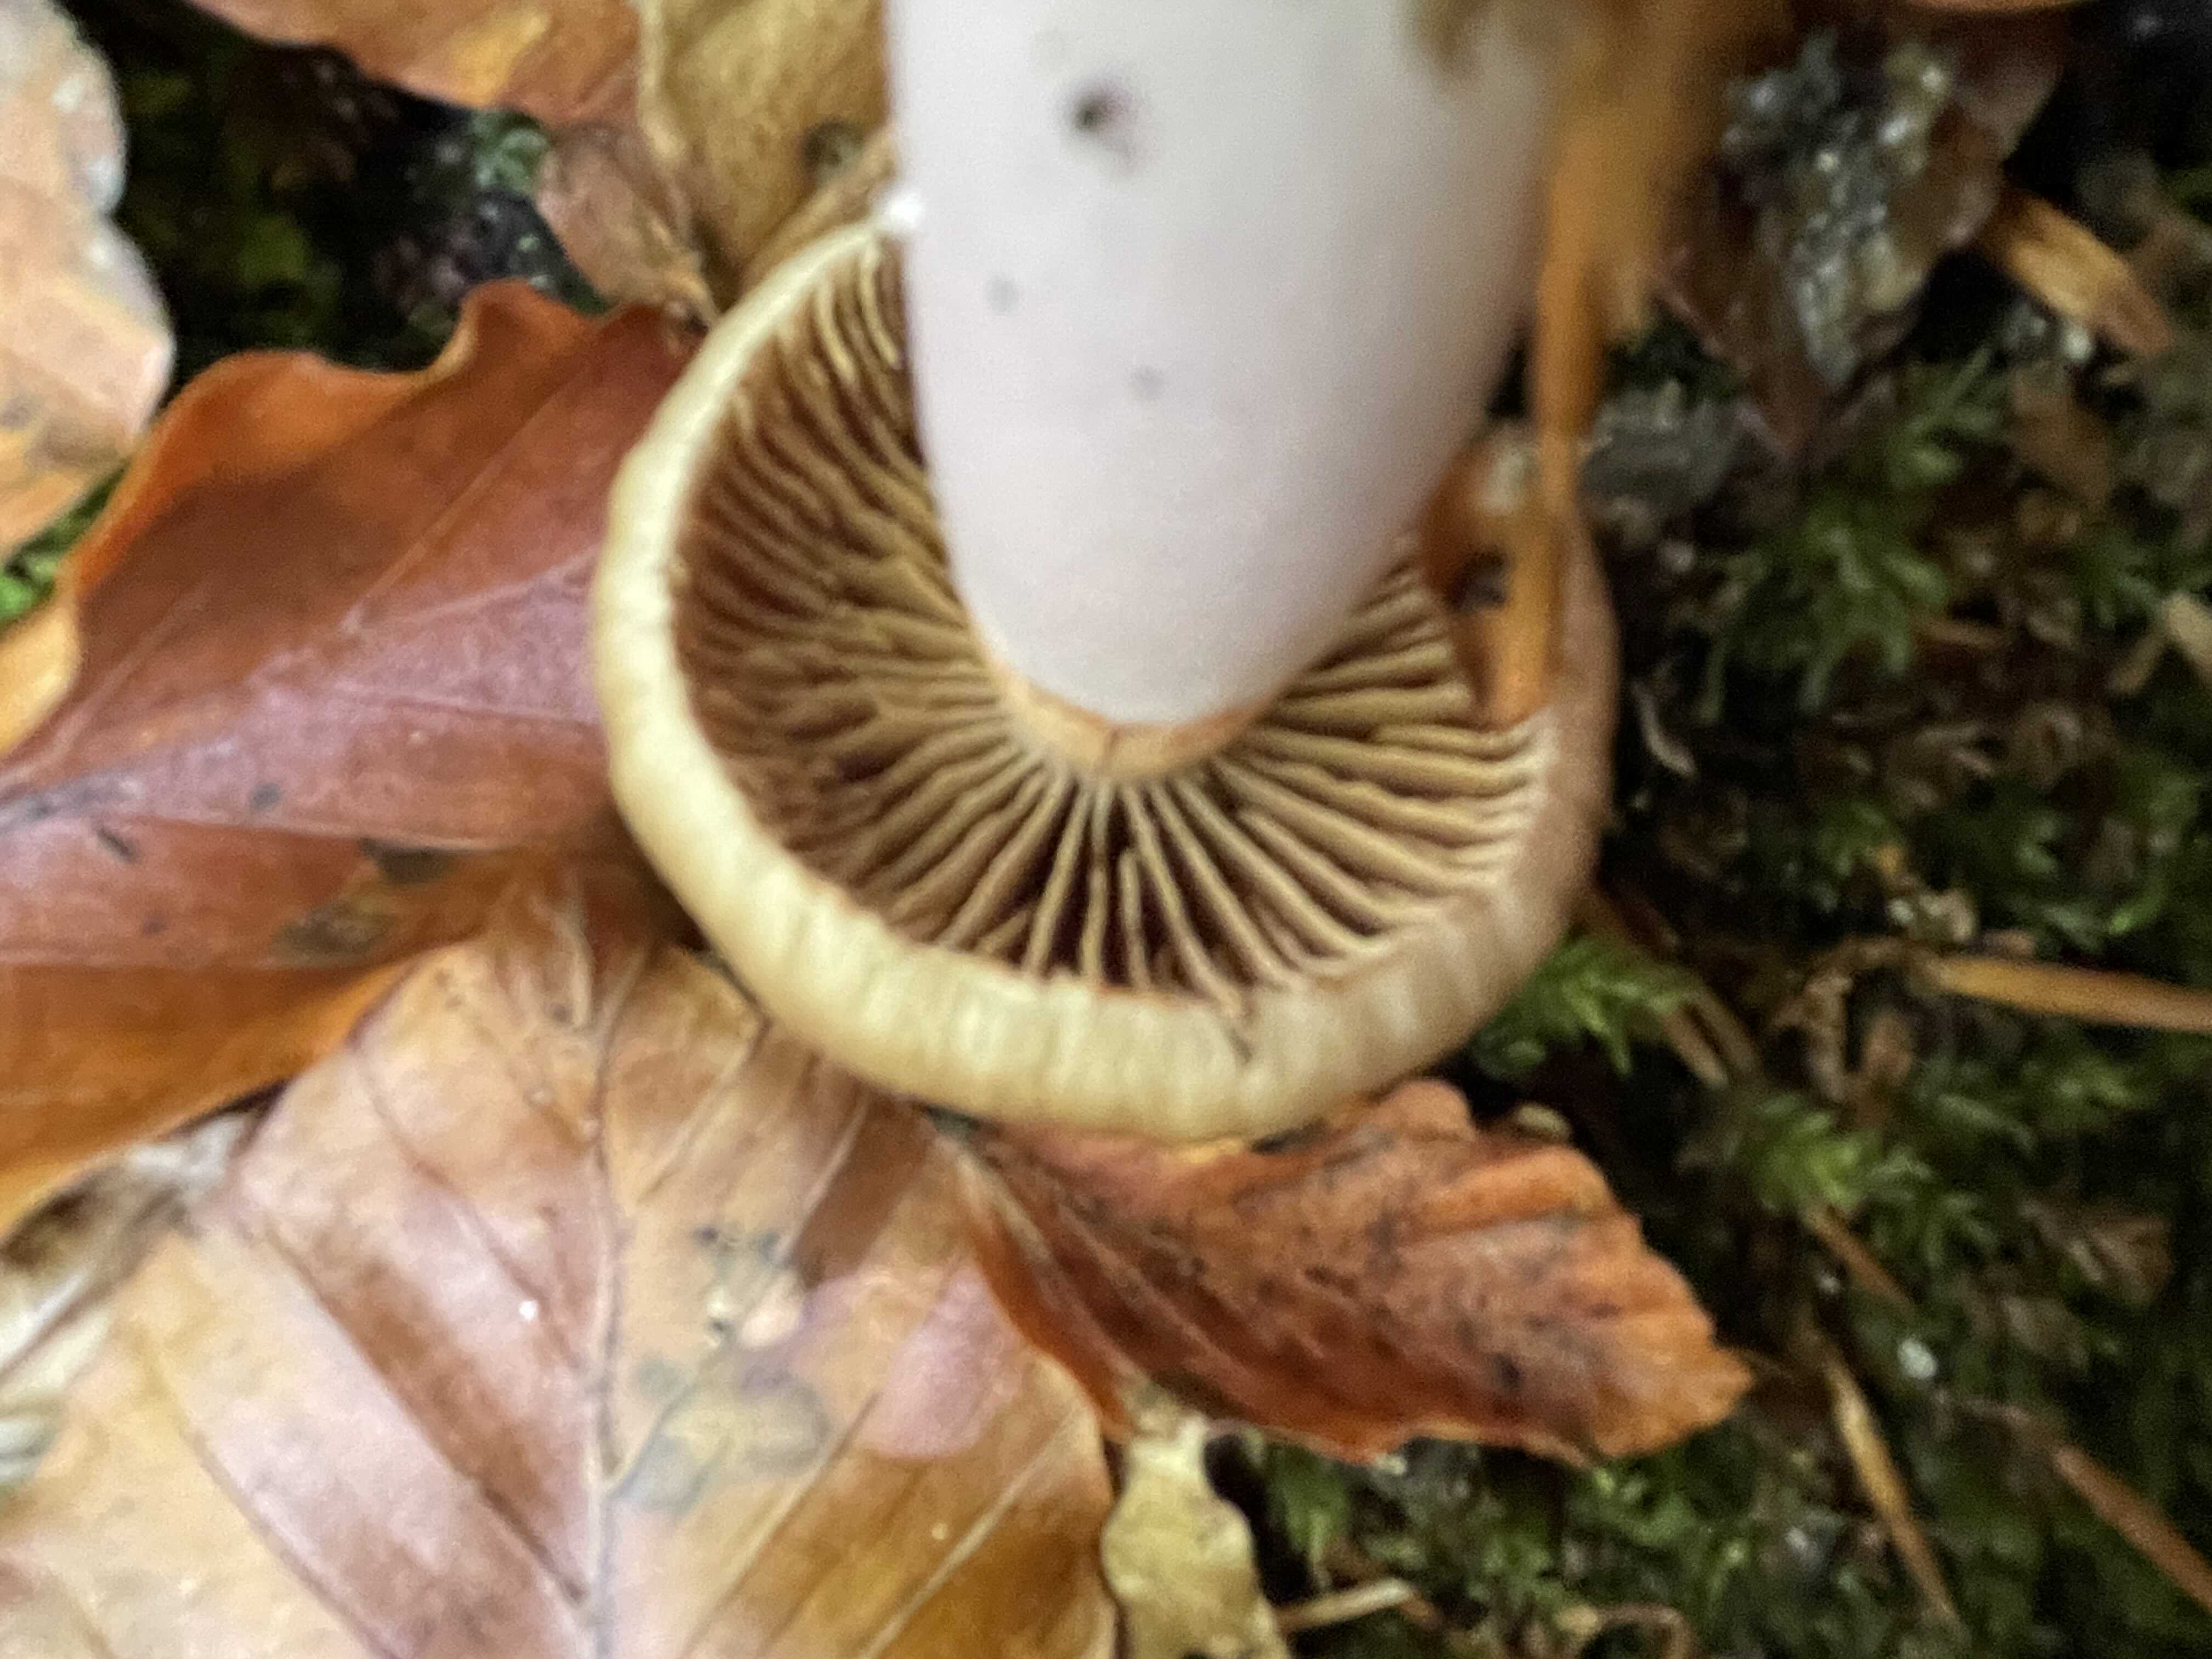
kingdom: Fungi
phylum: Basidiomycota
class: Agaricomycetes
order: Agaricales
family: Cortinariaceae
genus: Cortinarius
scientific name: Cortinarius elatior
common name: høj slørhat
